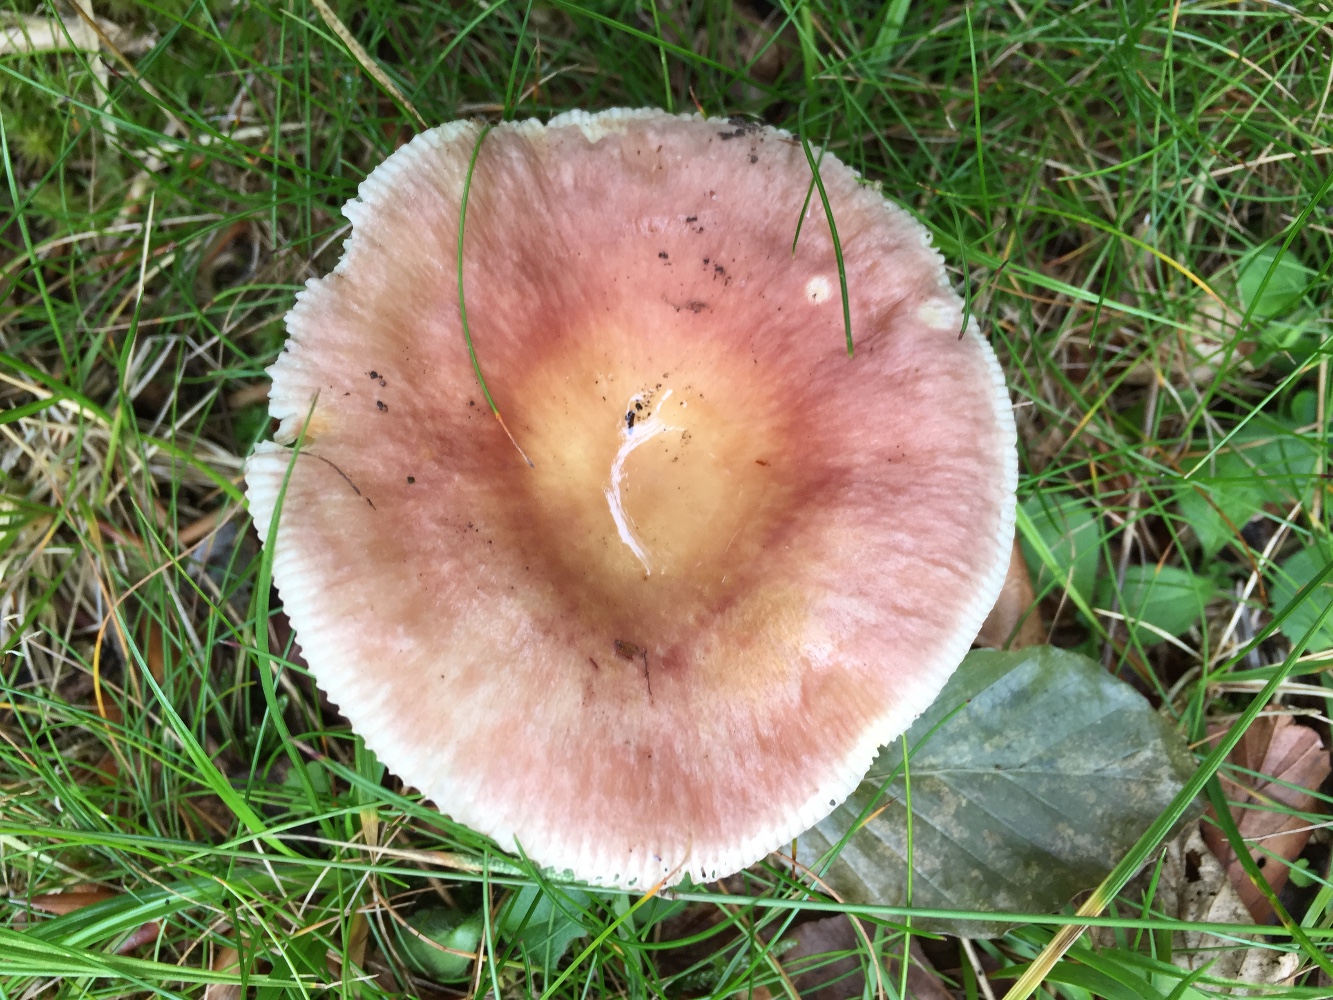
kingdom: Fungi
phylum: Basidiomycota
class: Agaricomycetes
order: Russulales
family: Russulaceae
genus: Russula
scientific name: Russula vesca
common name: spiselig skørhat
